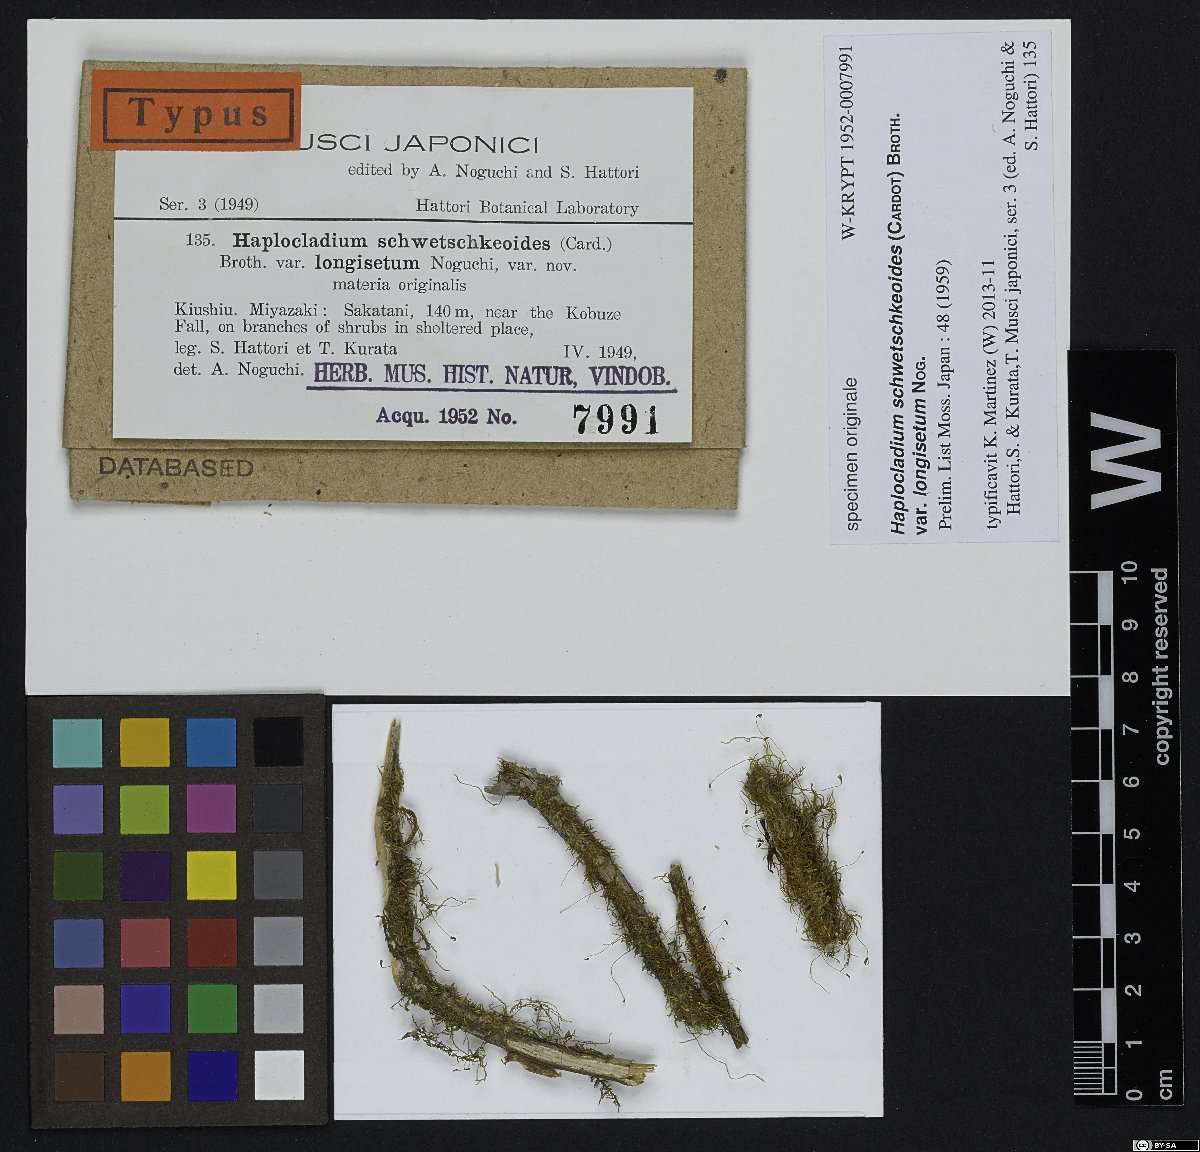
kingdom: Plantae
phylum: Bryophyta
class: Bryopsida
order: Hypnales
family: Leskeaceae
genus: Haplocladium
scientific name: Haplocladium angustifolium
